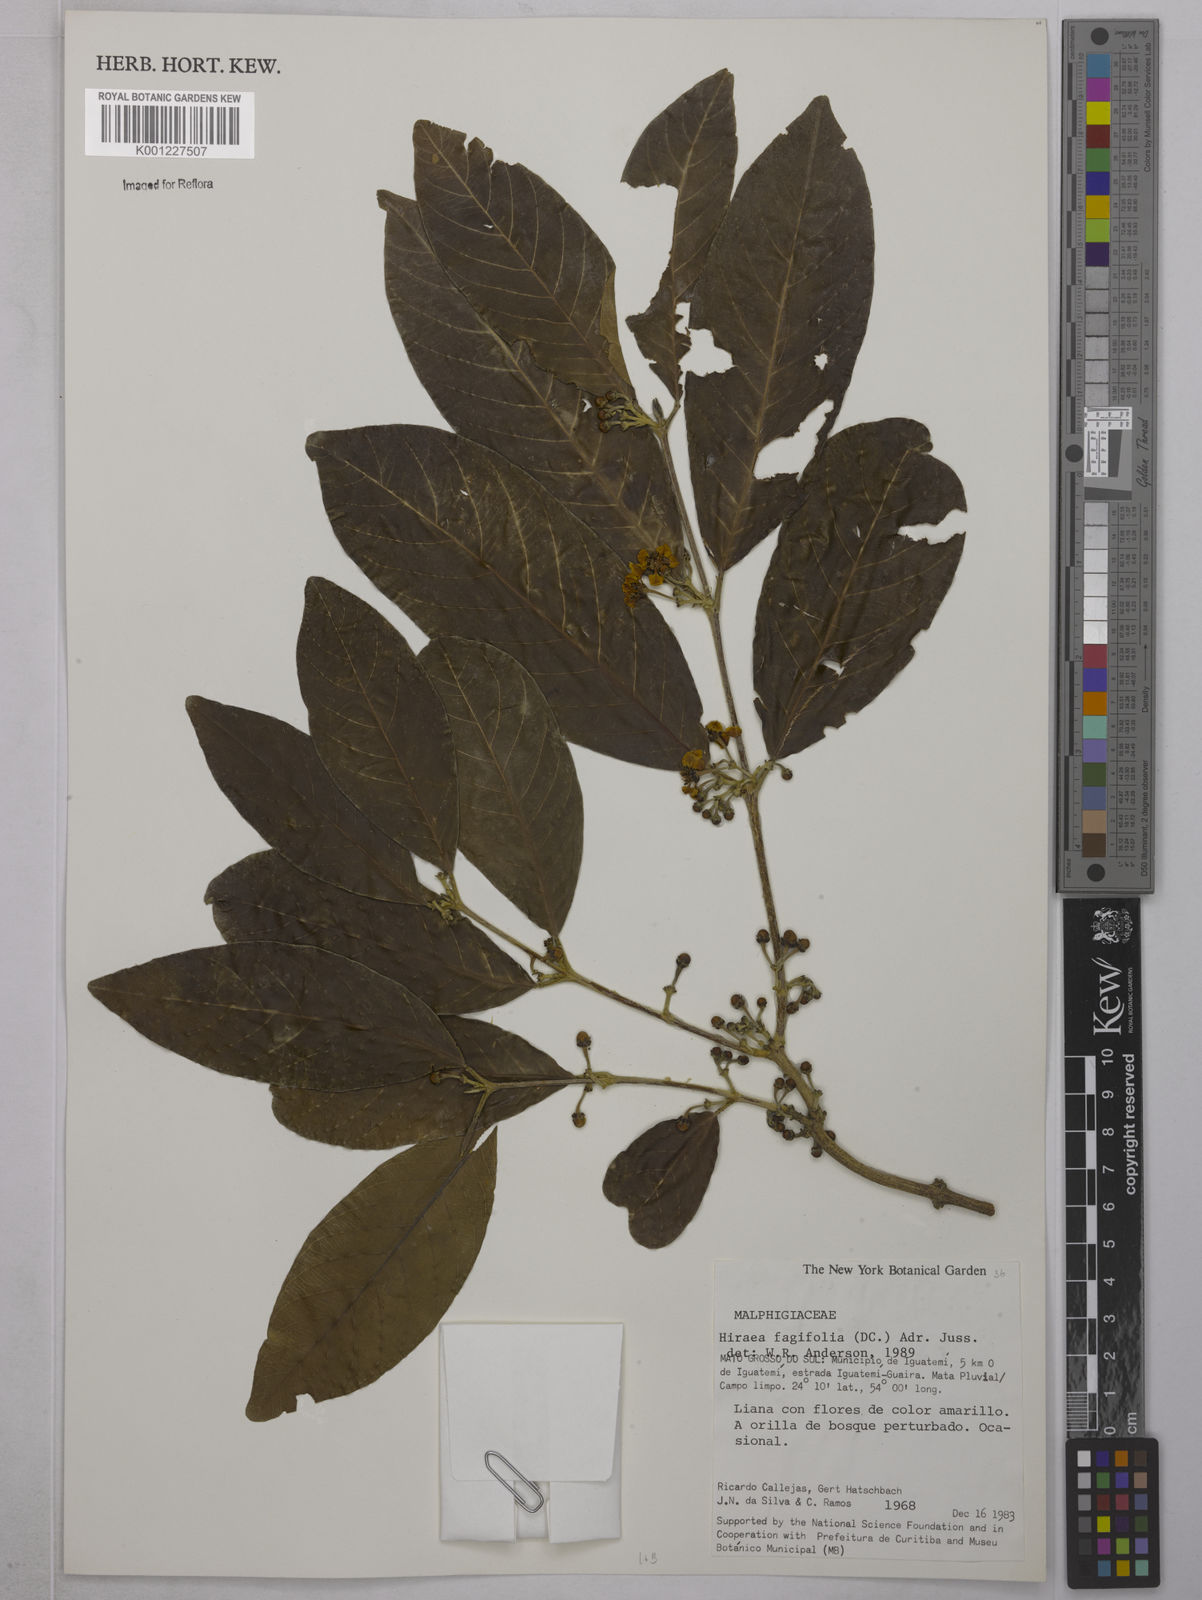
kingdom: Plantae
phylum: Tracheophyta
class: Magnoliopsida
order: Malpighiales
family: Malpighiaceae
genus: Hiraea
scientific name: Hiraea fagifolia
